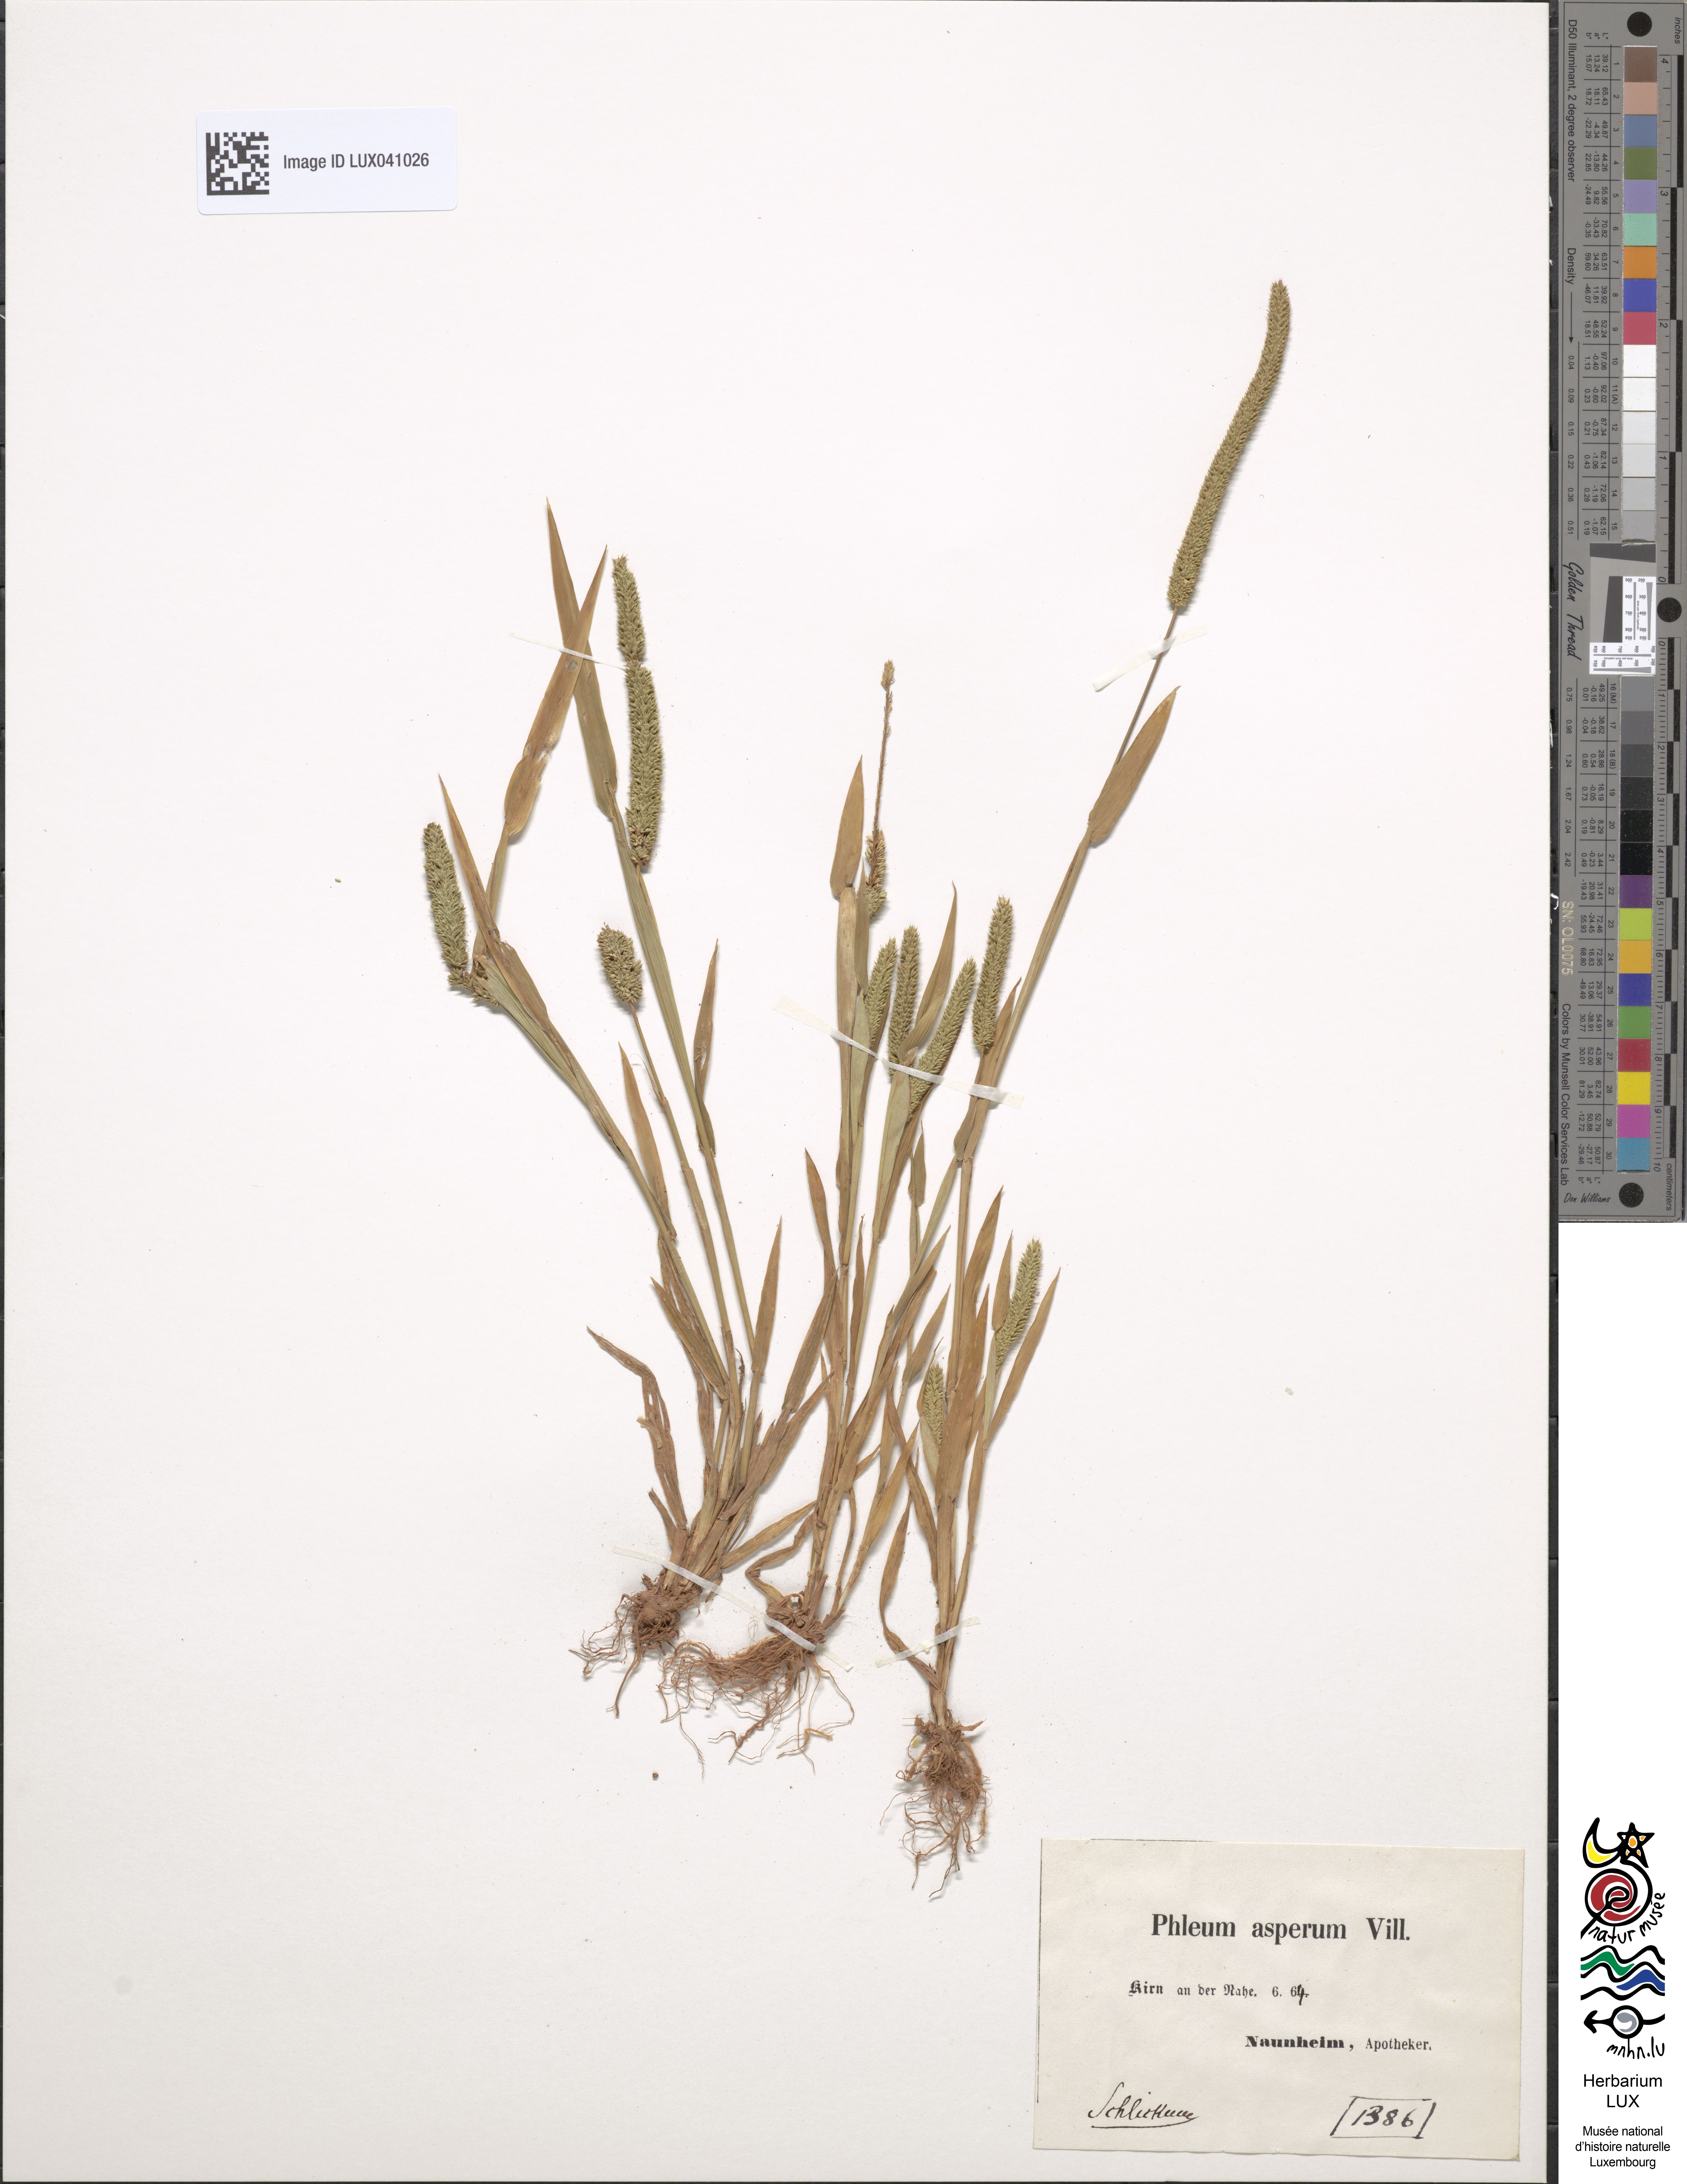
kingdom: Plantae
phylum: Tracheophyta
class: Liliopsida
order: Poales
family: Poaceae
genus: Phleum
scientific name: Phleum paniculatum
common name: British timothy
